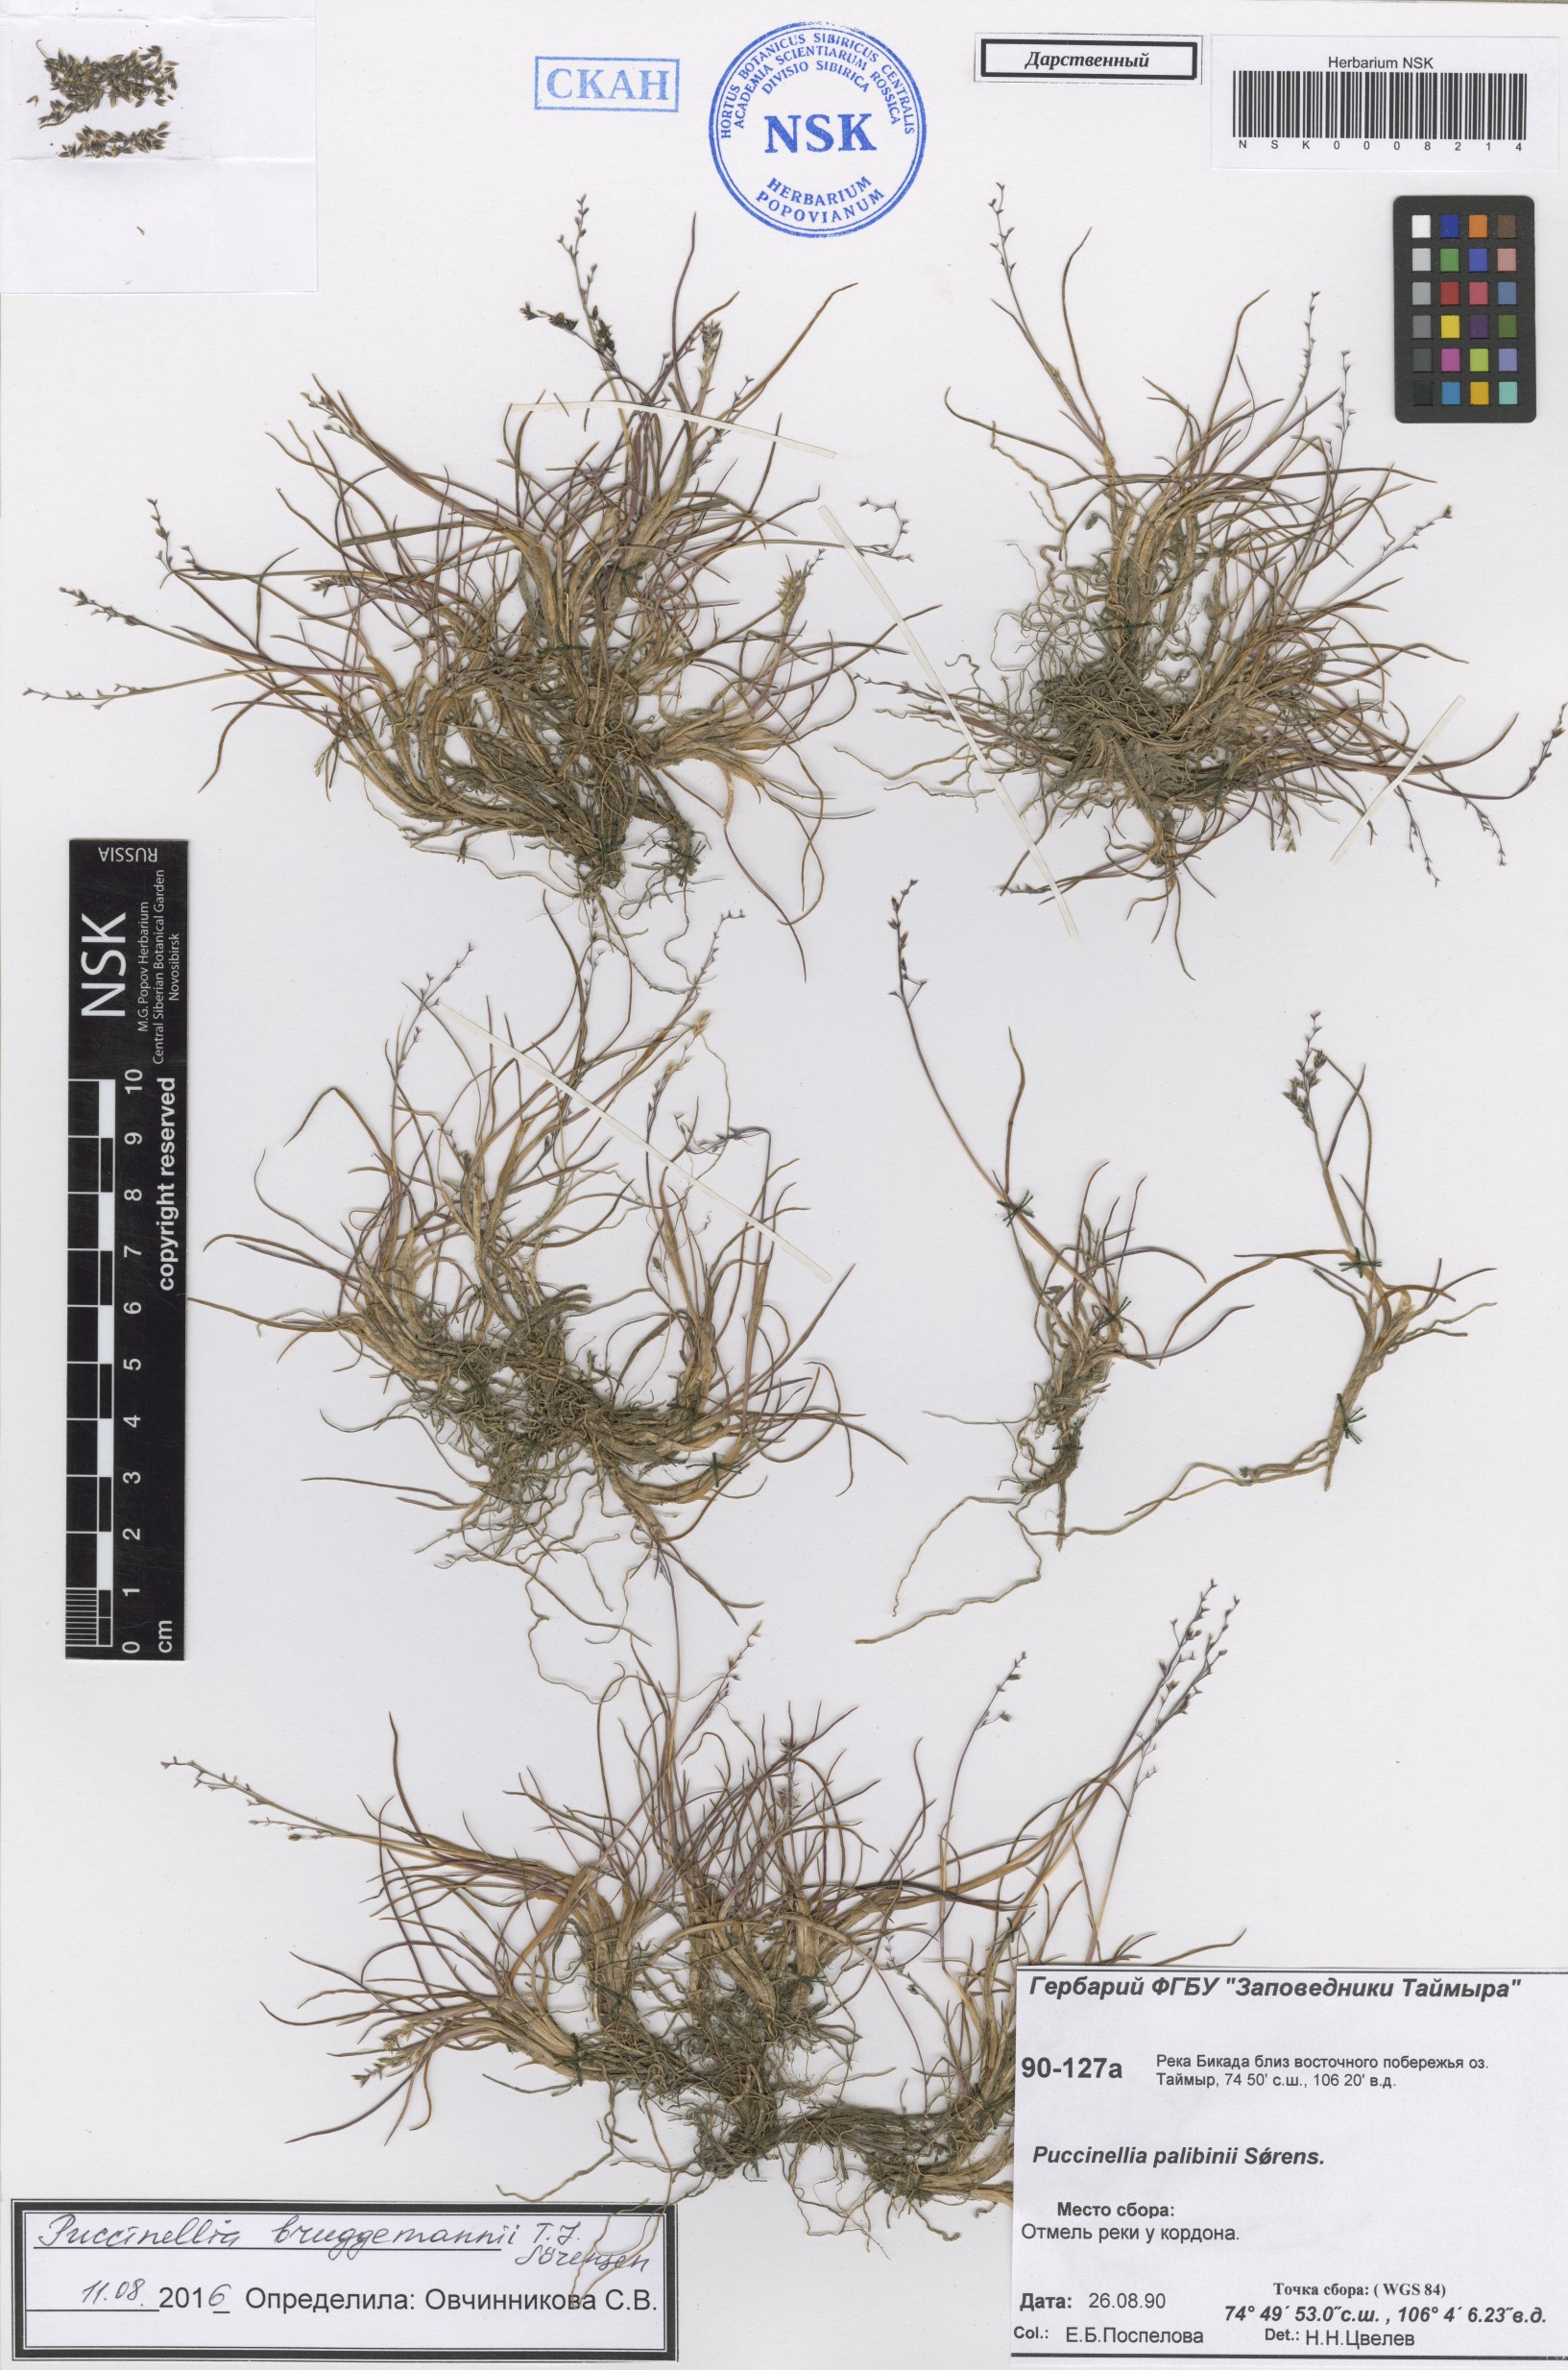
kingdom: Plantae
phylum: Tracheophyta
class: Liliopsida
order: Poales
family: Poaceae
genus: Puccinellia
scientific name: Puccinellia bruggemannii
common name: Bruggemann's alkaligrass
